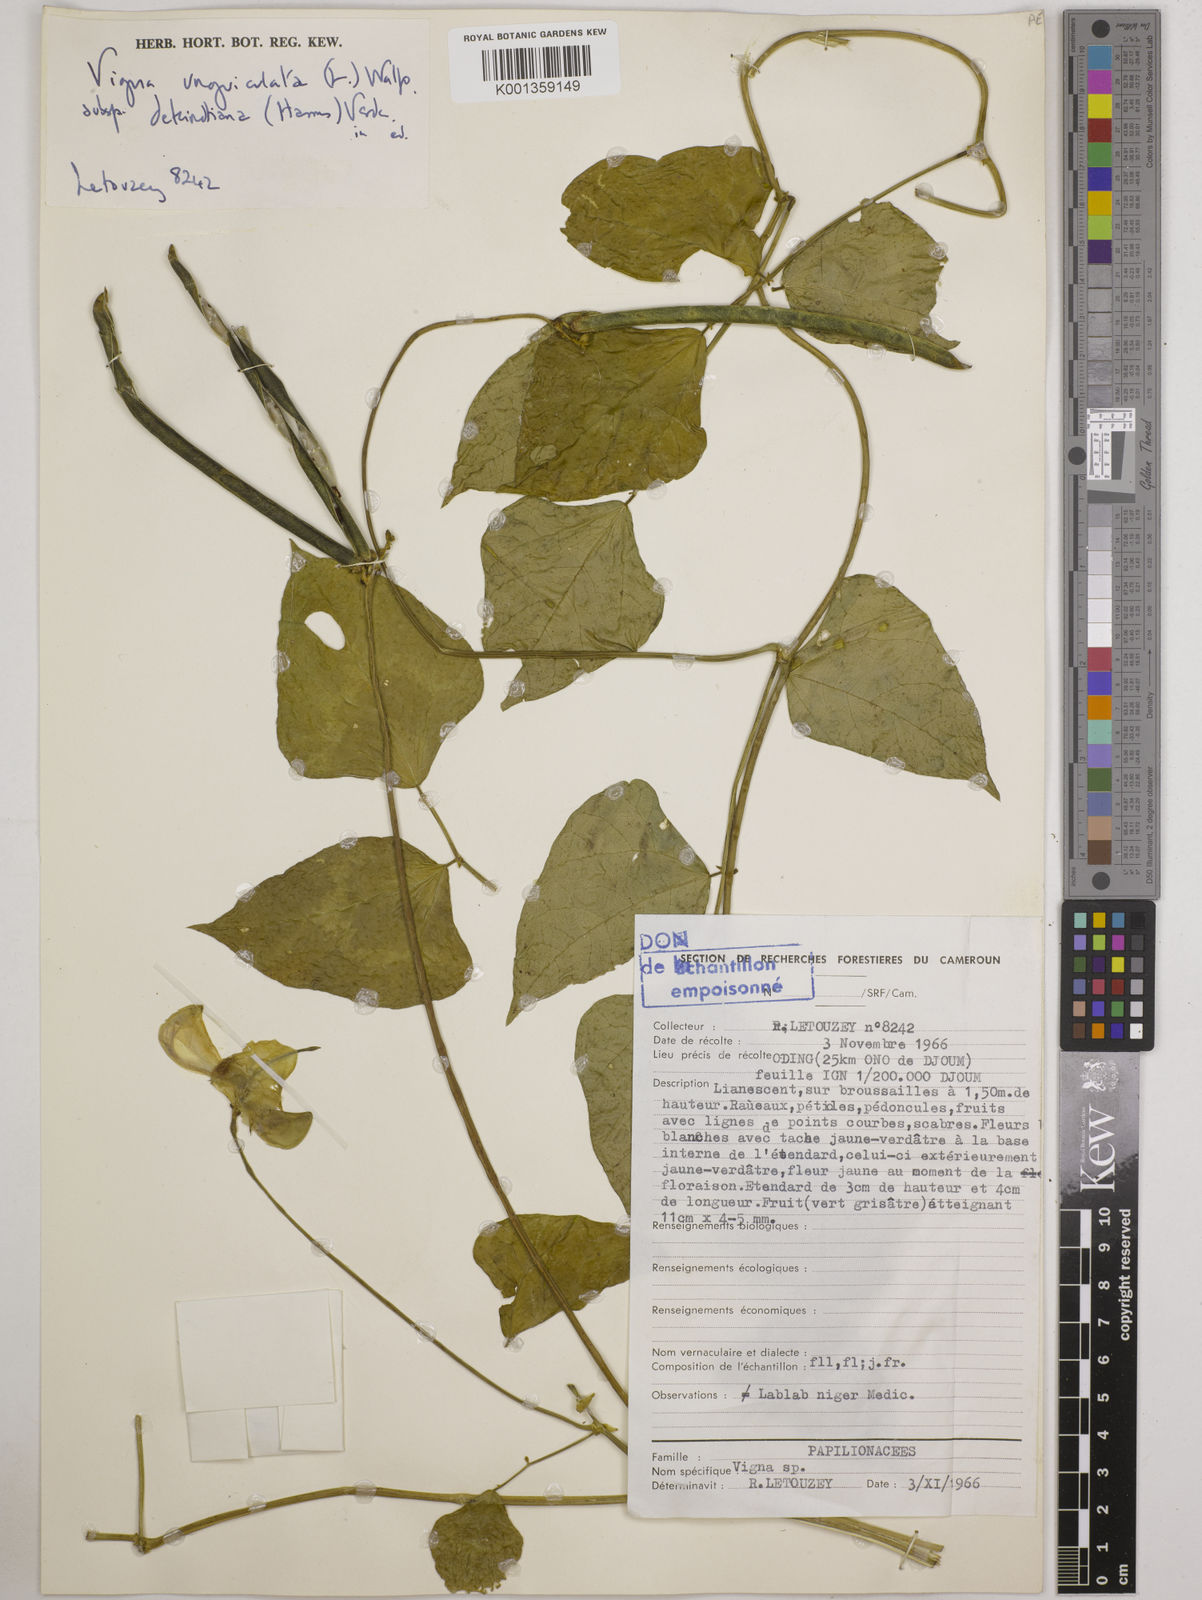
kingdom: Plantae
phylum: Tracheophyta
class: Magnoliopsida
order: Fabales
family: Fabaceae
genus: Vigna
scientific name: Vigna
